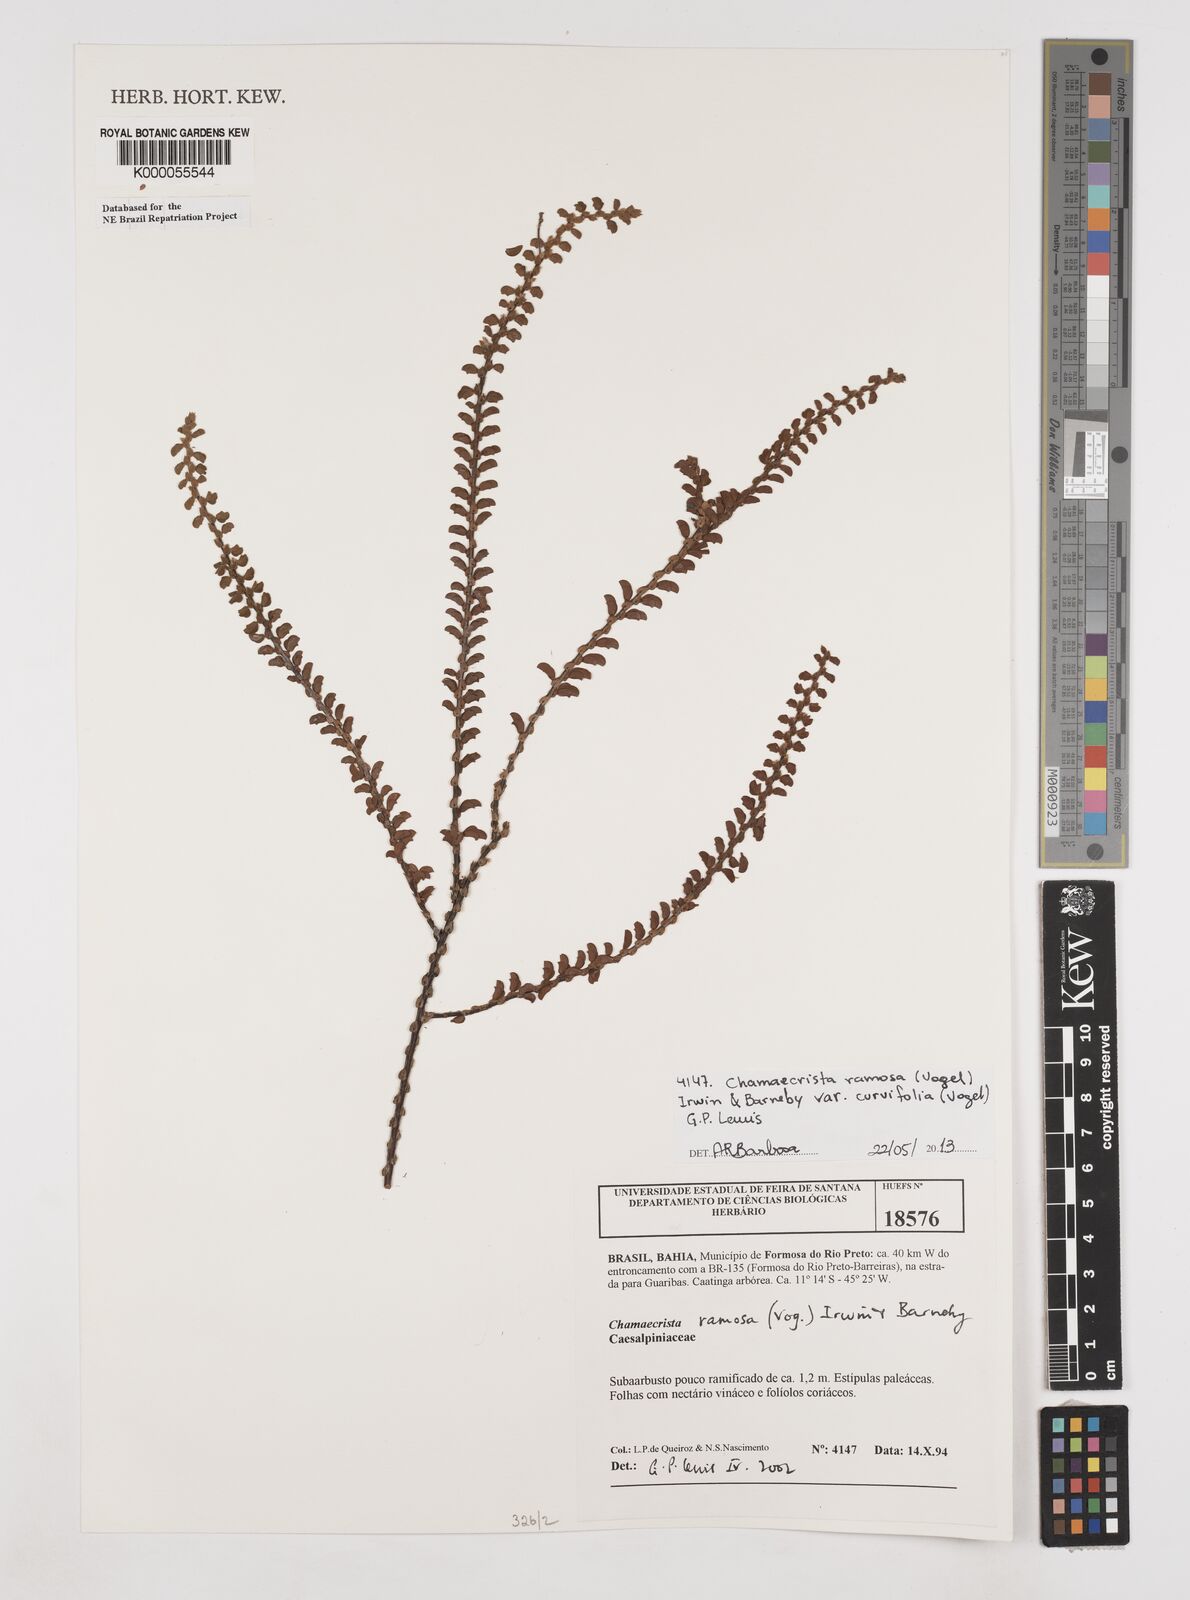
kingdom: Plantae
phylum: Tracheophyta
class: Magnoliopsida
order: Fabales
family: Fabaceae
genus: Chamaecrista
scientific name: Chamaecrista ramosa
